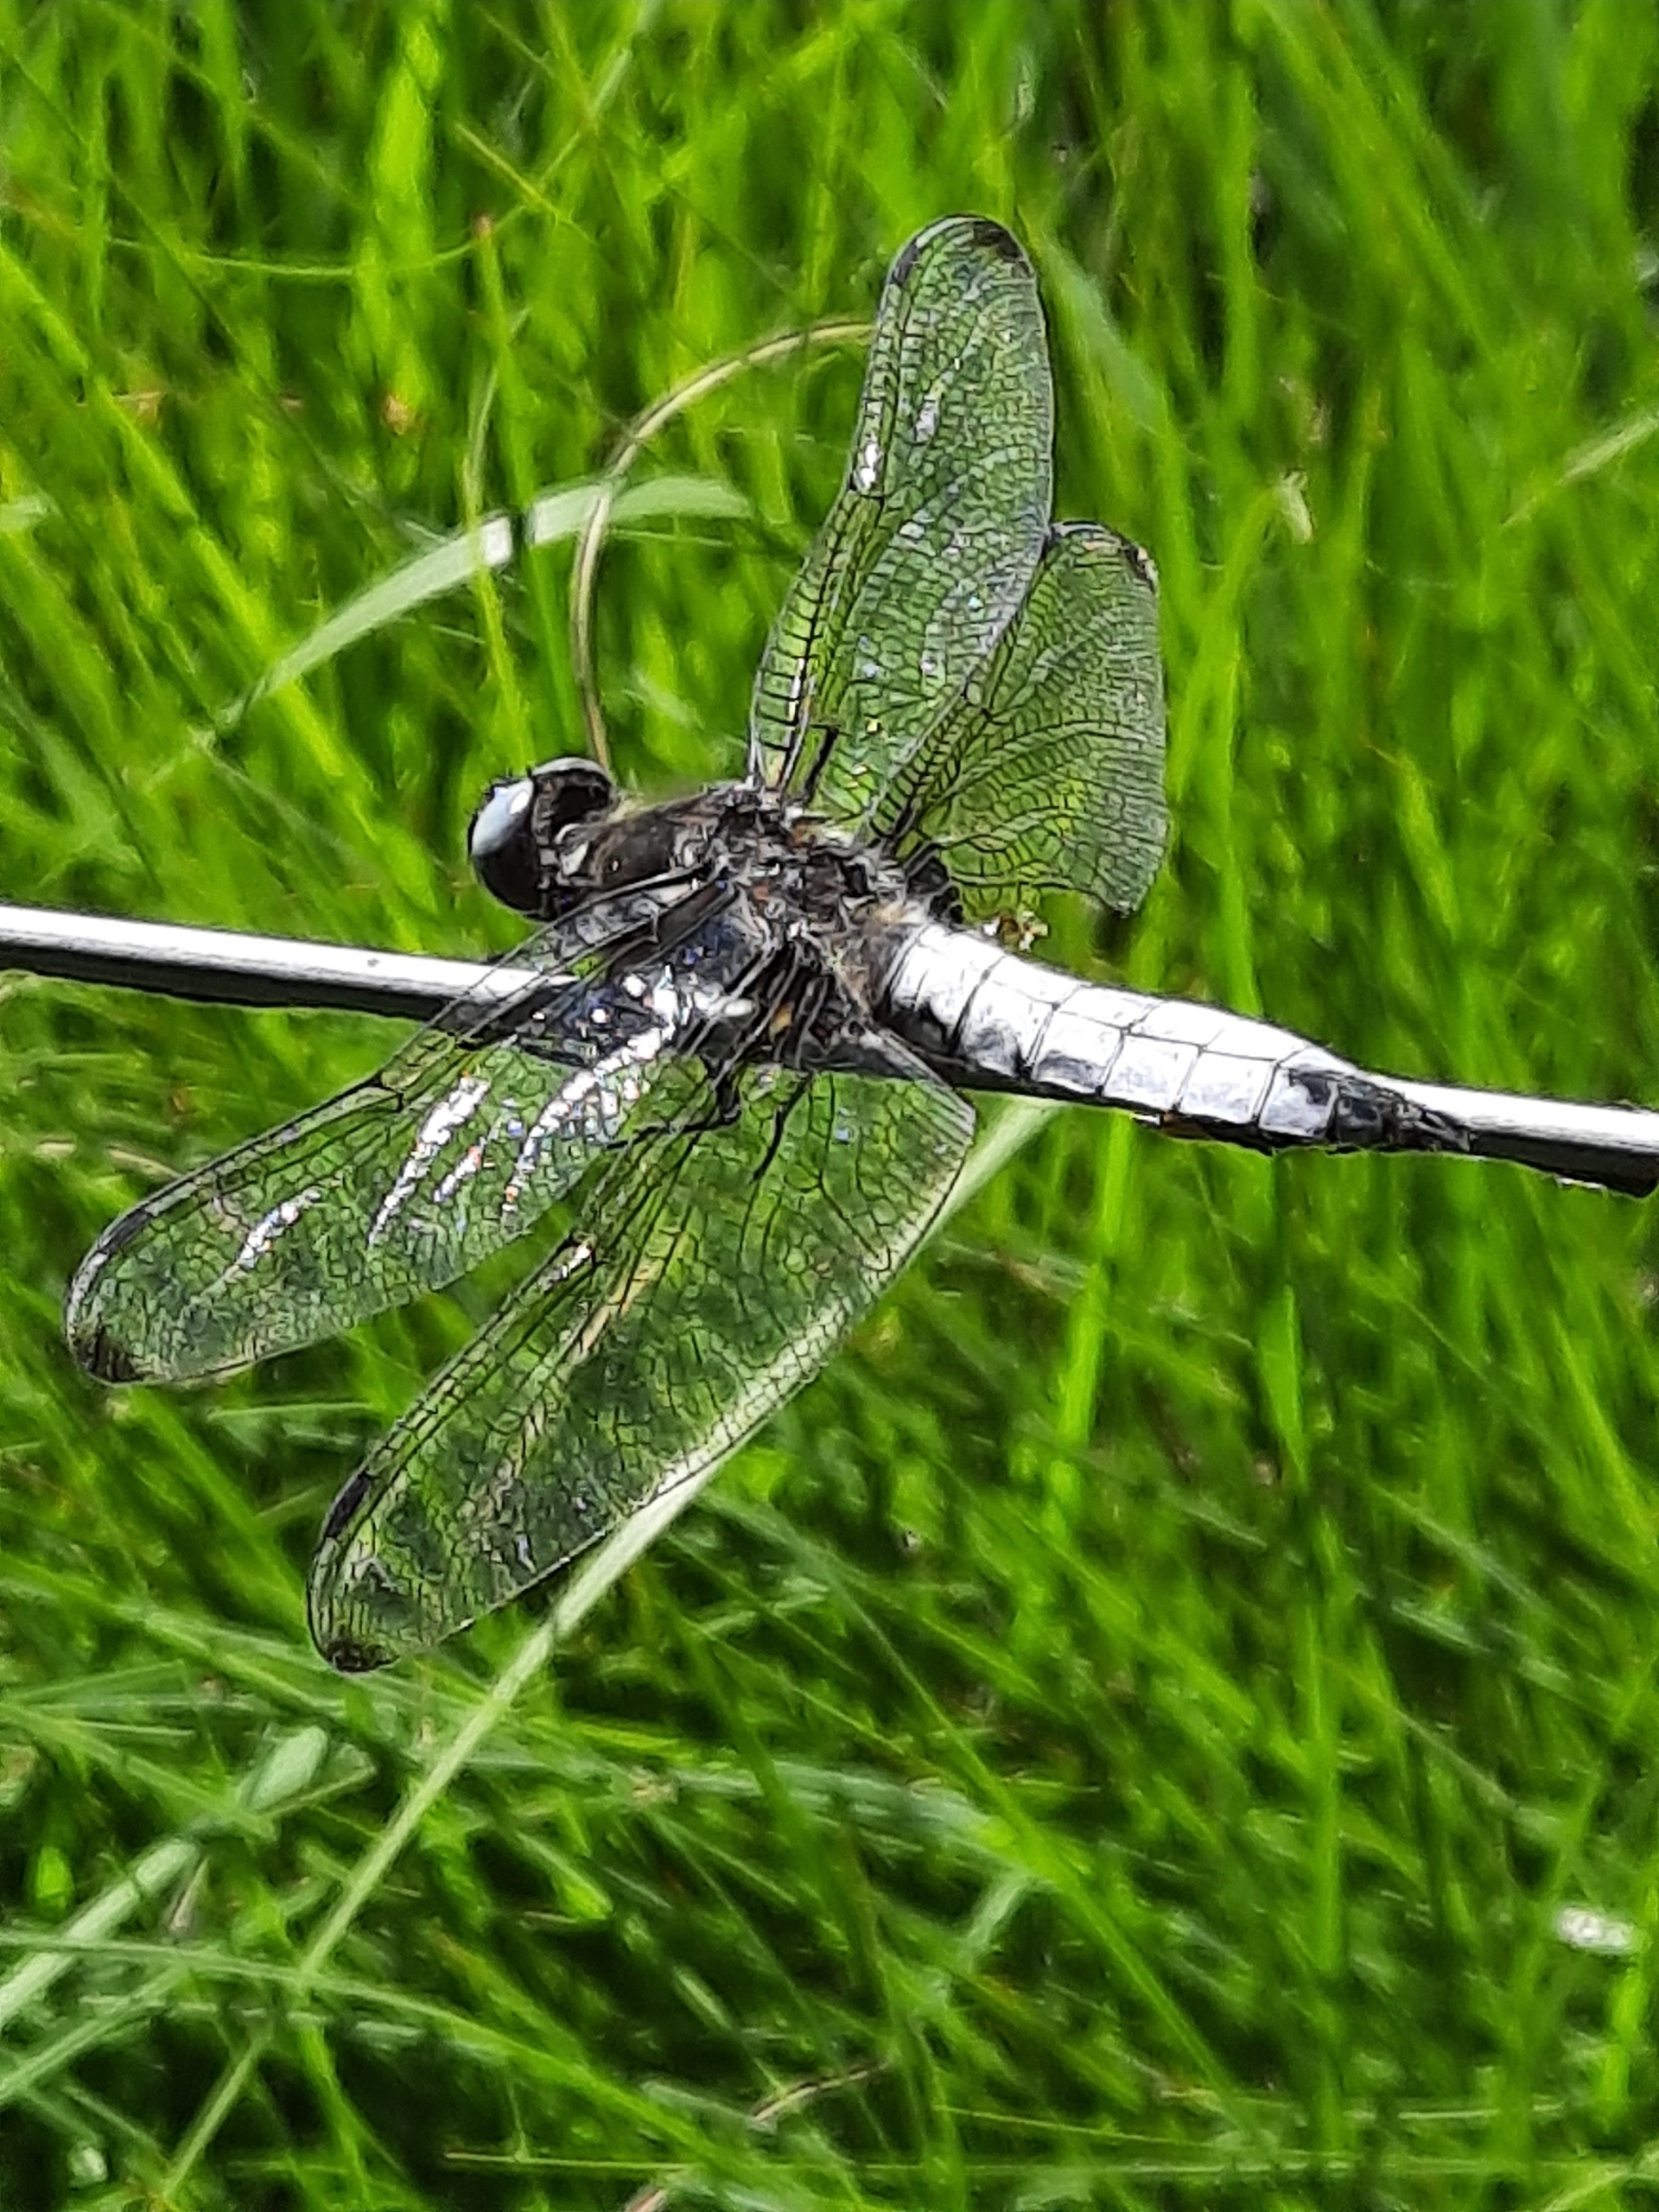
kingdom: Animalia
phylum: Arthropoda
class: Insecta
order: Odonata
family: Libellulidae
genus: Libellula
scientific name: Libellula fulva
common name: Spidsplettet libel
